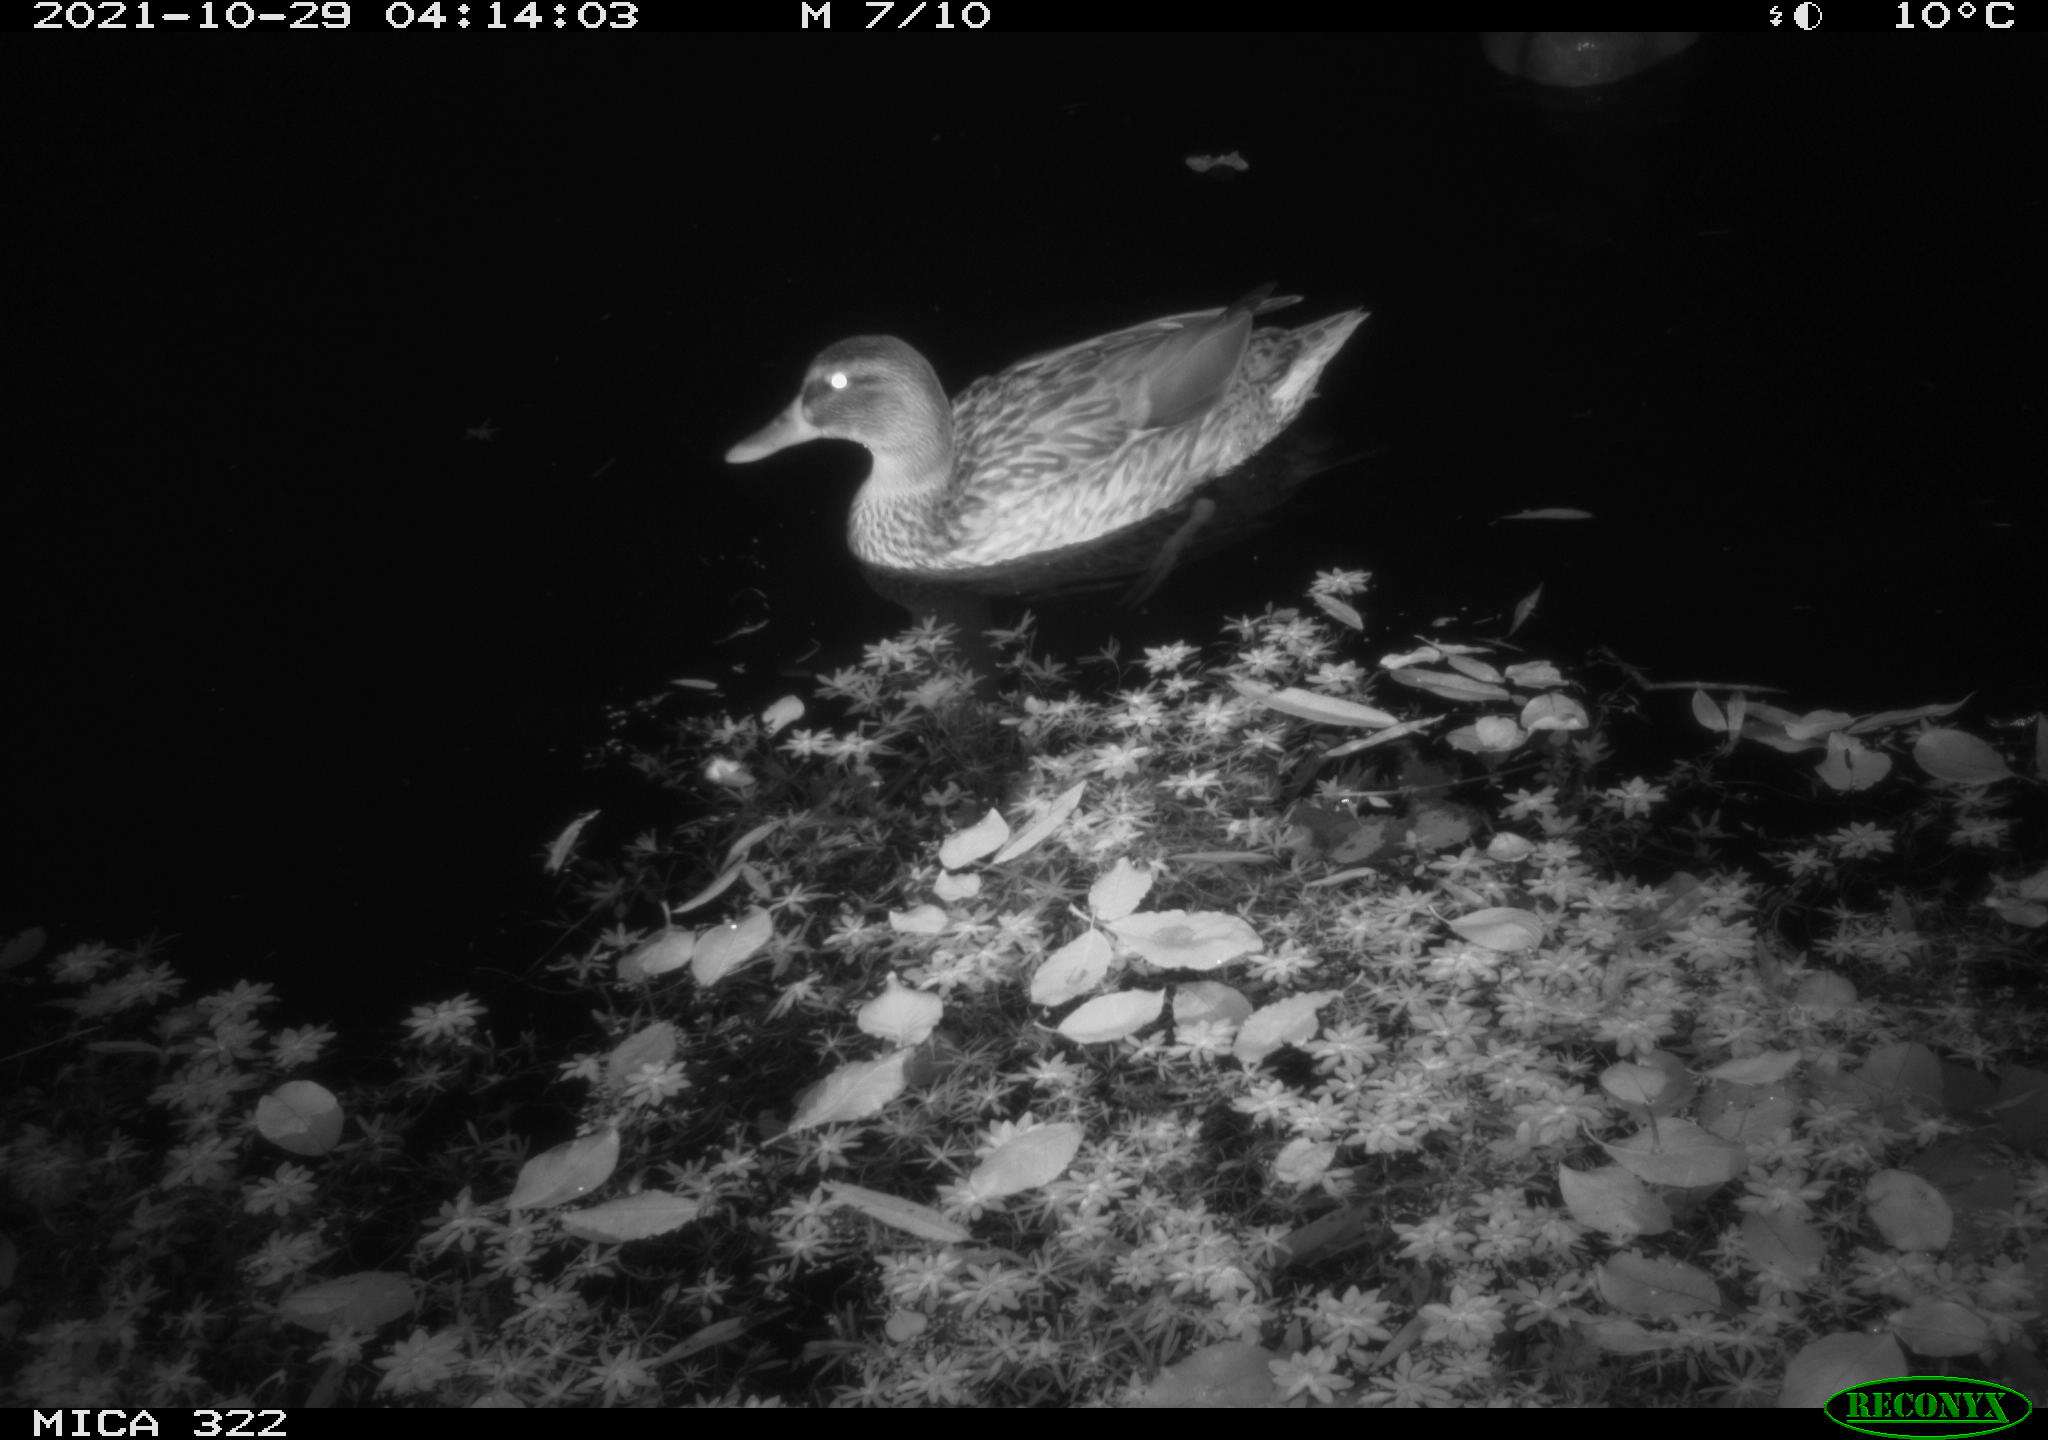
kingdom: Animalia
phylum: Chordata
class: Aves
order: Anseriformes
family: Anatidae
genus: Mareca
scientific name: Mareca strepera
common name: Gadwall
